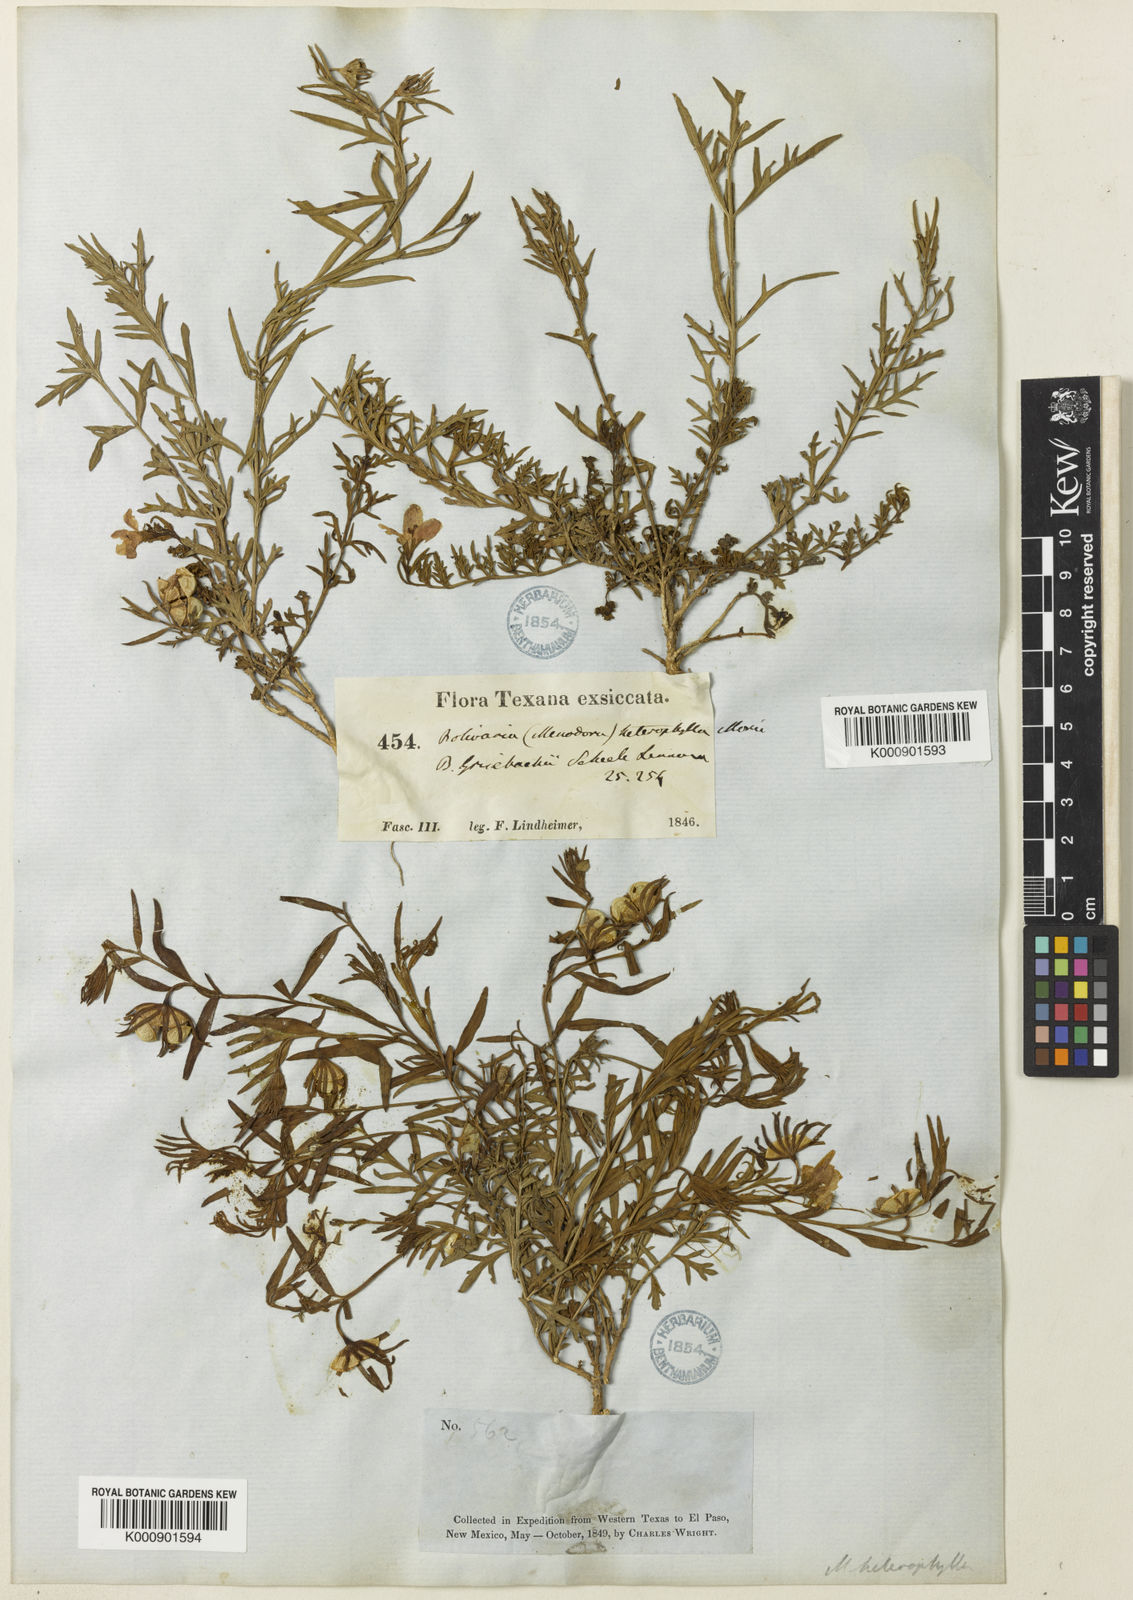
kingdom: Plantae
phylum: Tracheophyta
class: Magnoliopsida
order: Lamiales
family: Oleaceae
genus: Menodora
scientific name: Menodora heterophylla
